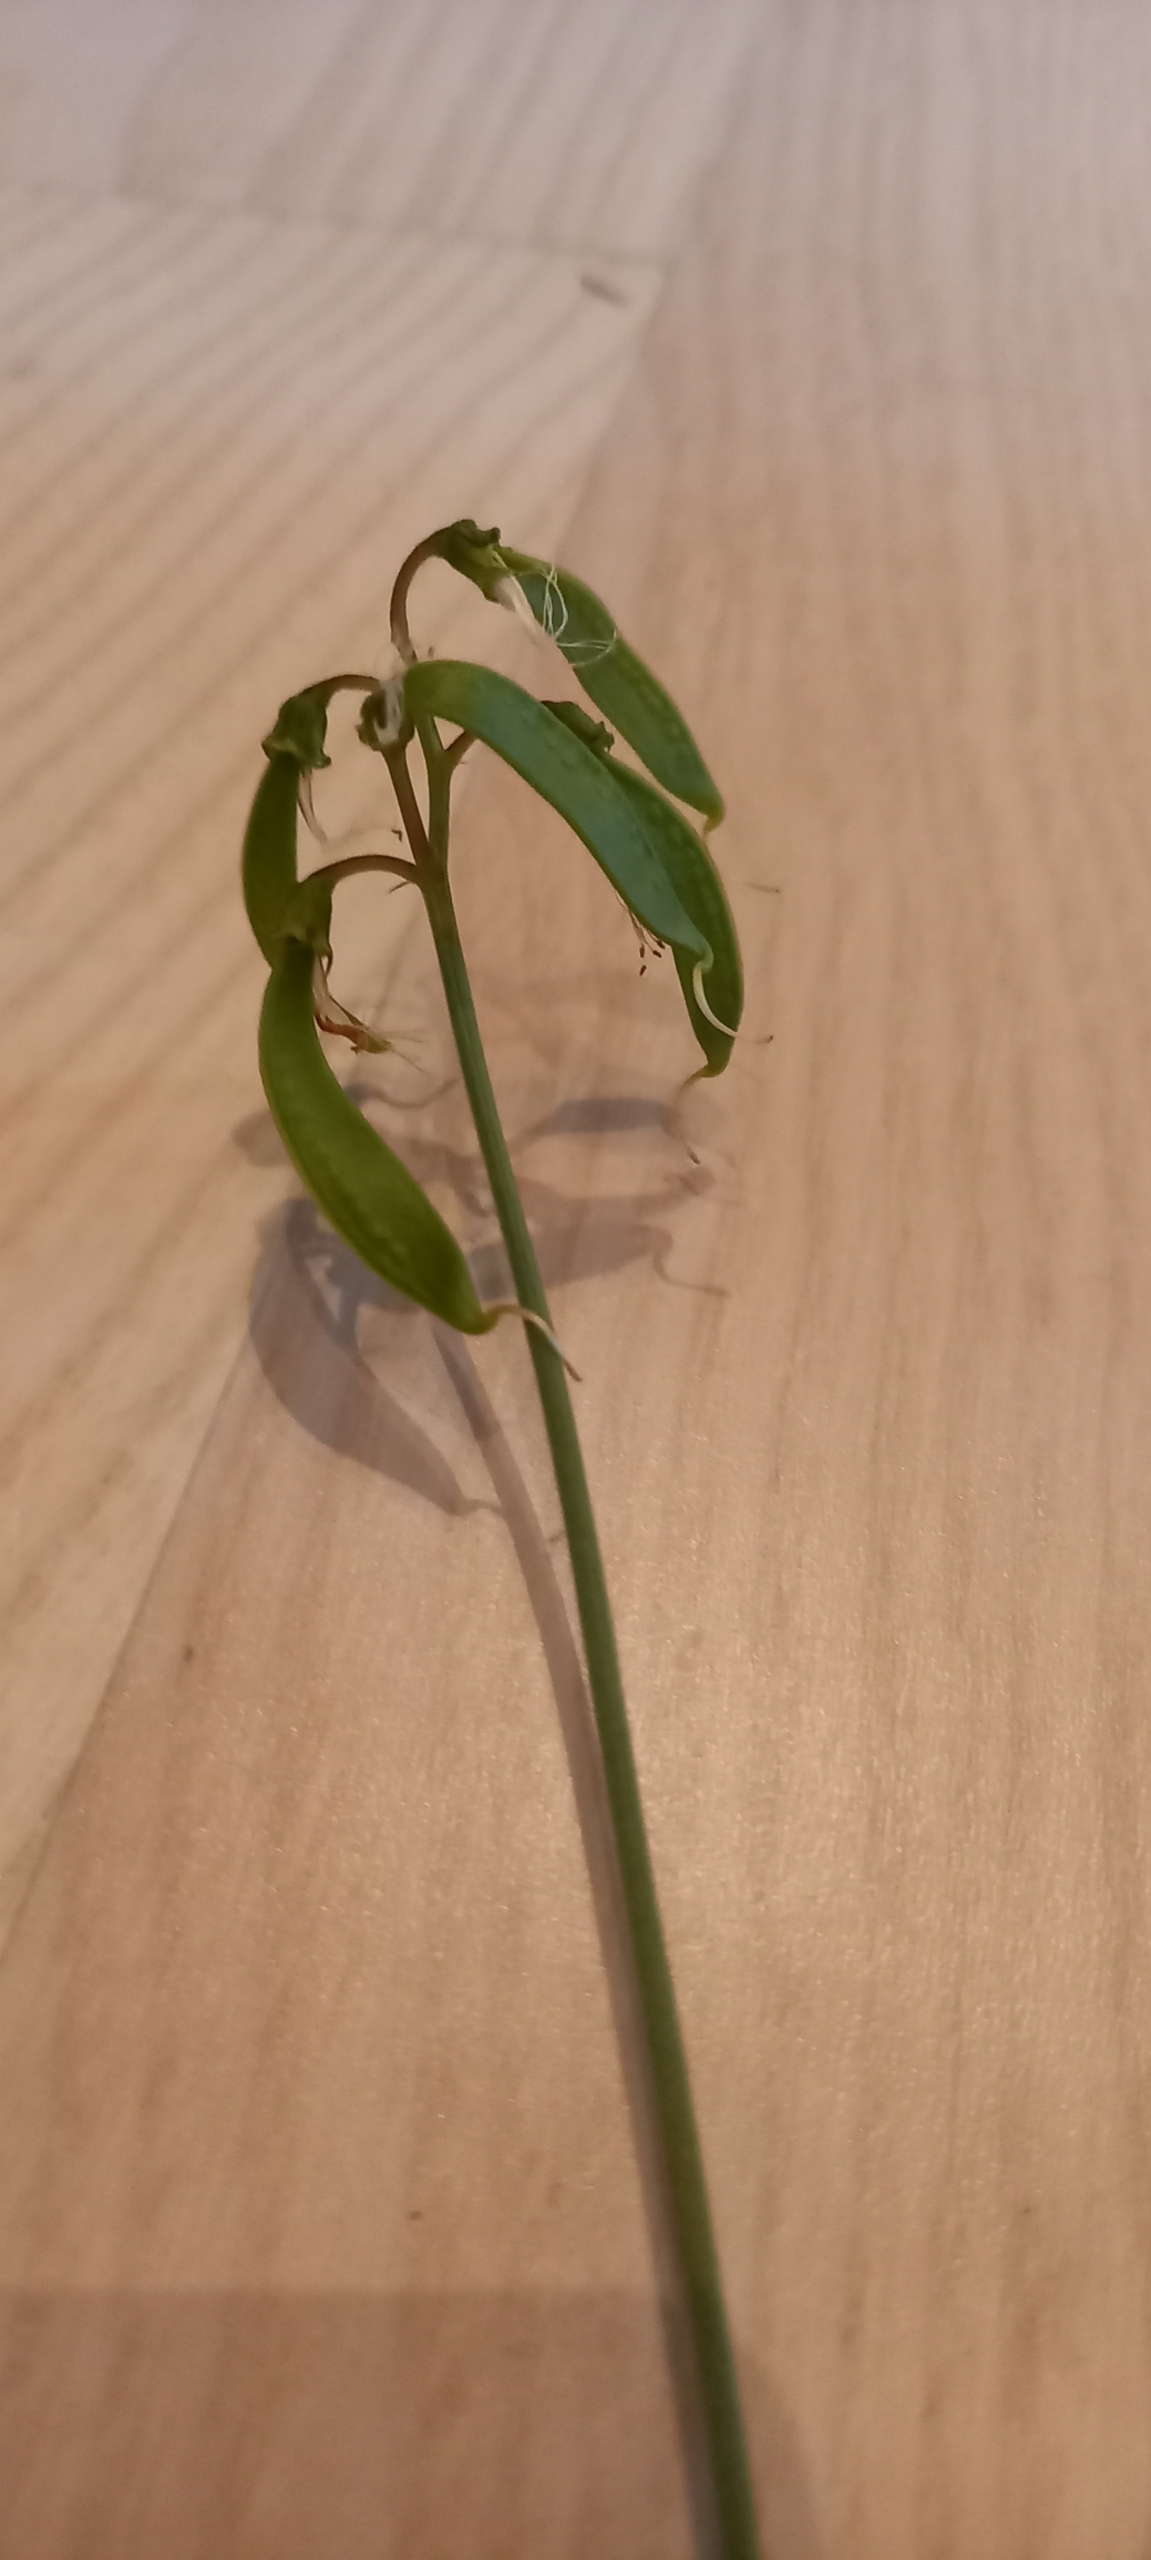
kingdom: Plantae
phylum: Tracheophyta
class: Magnoliopsida
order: Fabales
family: Fabaceae
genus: Lathyrus
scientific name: Lathyrus sylvestris
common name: Skov-fladbælg
